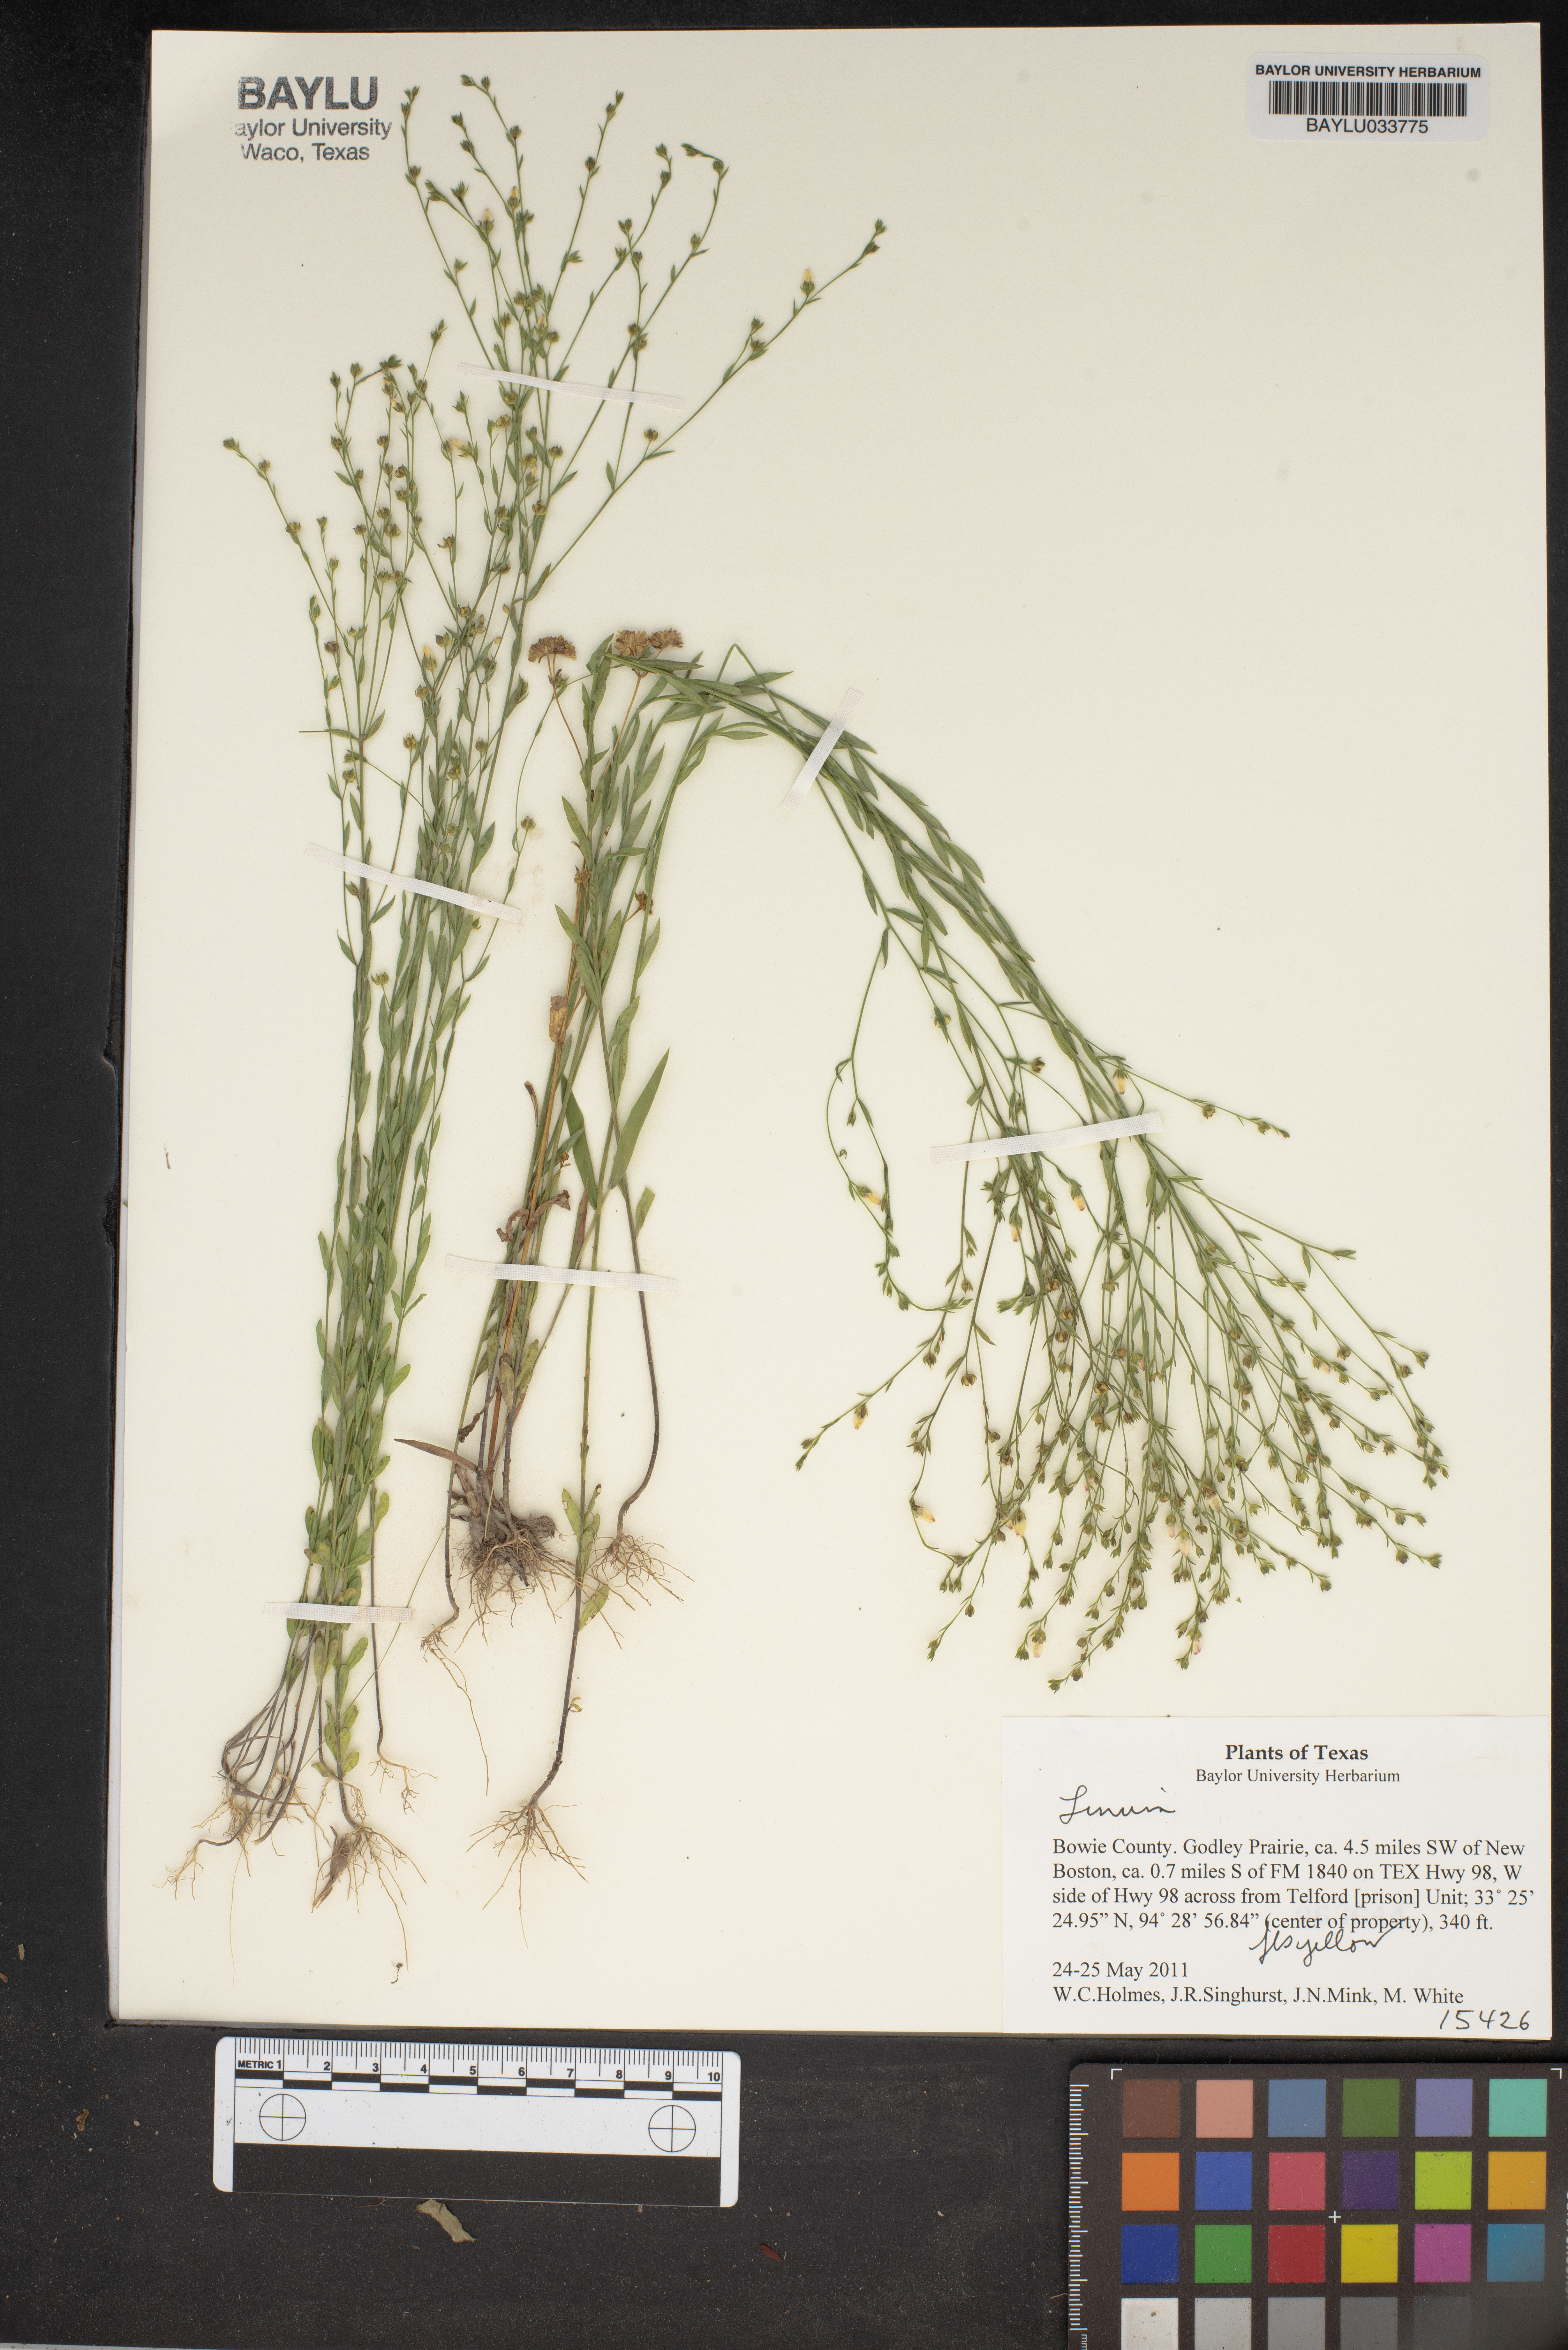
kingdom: Plantae
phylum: Tracheophyta
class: Magnoliopsida
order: Malpighiales
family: Linaceae
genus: Linum
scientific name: Linum
